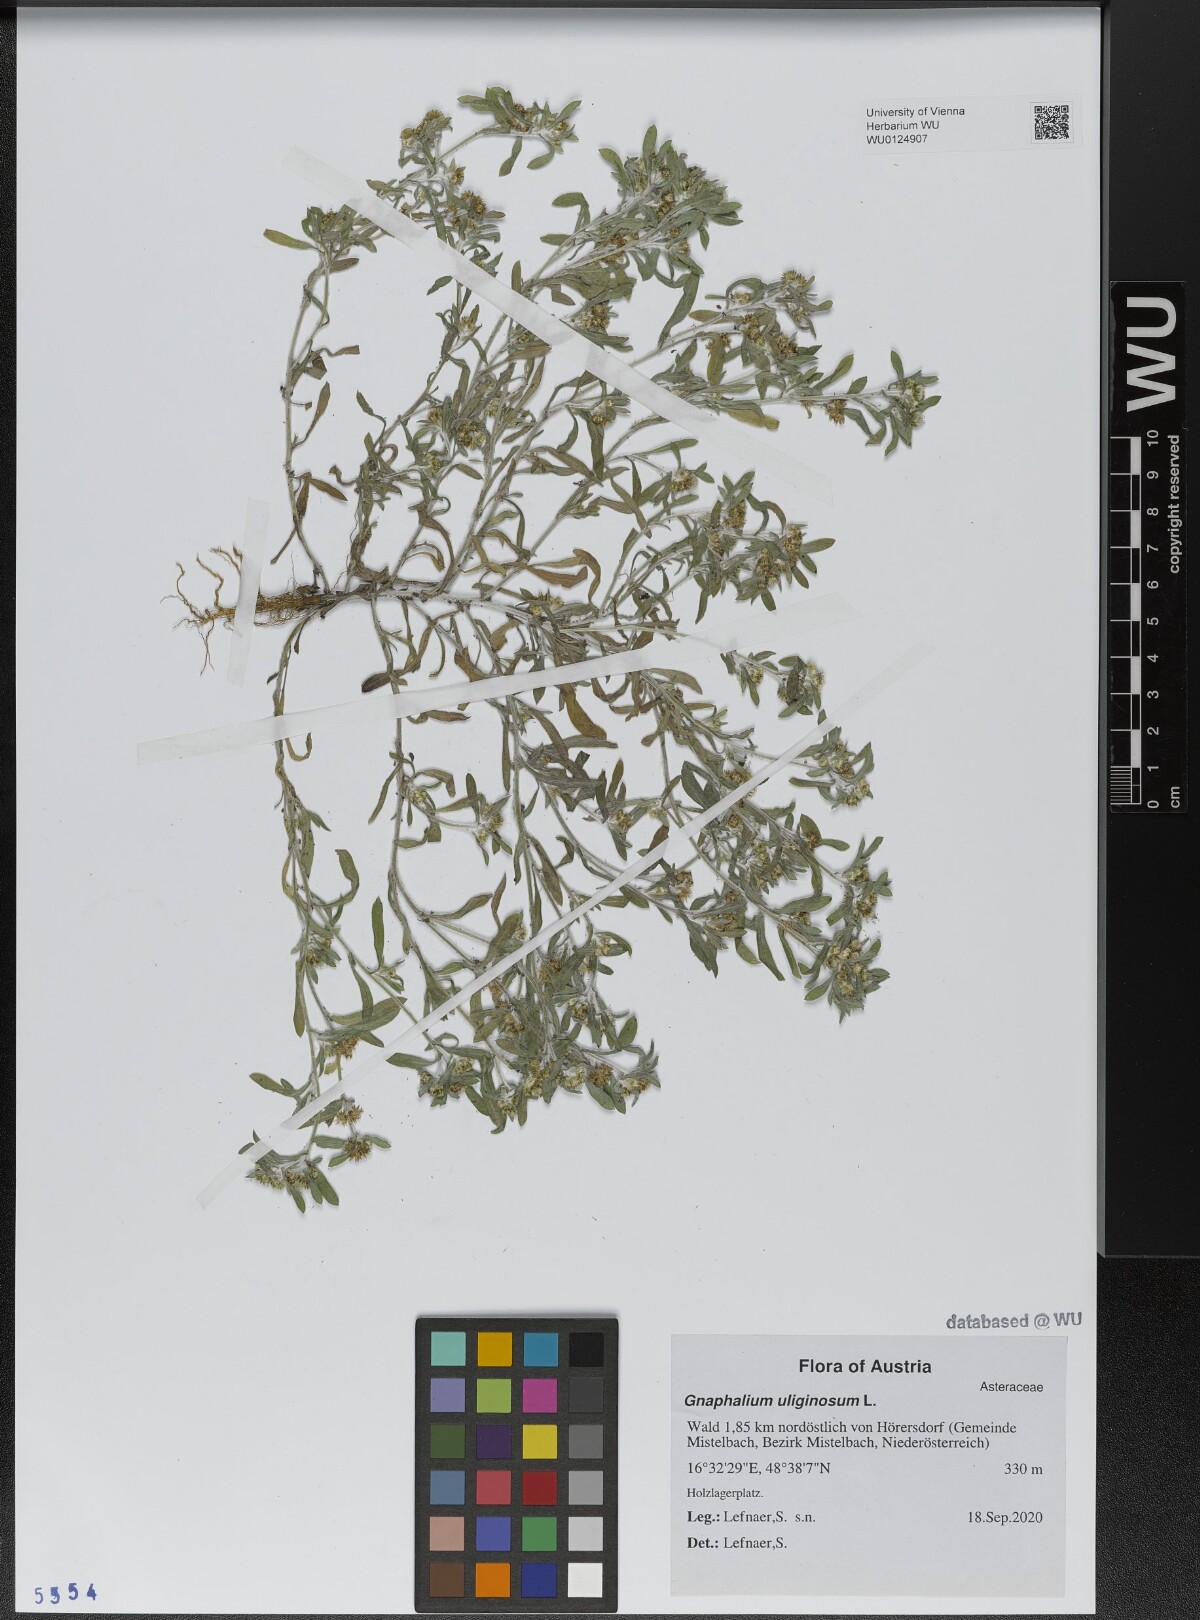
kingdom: Plantae
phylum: Tracheophyta
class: Magnoliopsida
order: Asterales
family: Asteraceae
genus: Gnaphalium
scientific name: Gnaphalium uliginosum
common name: Marsh cudweed
